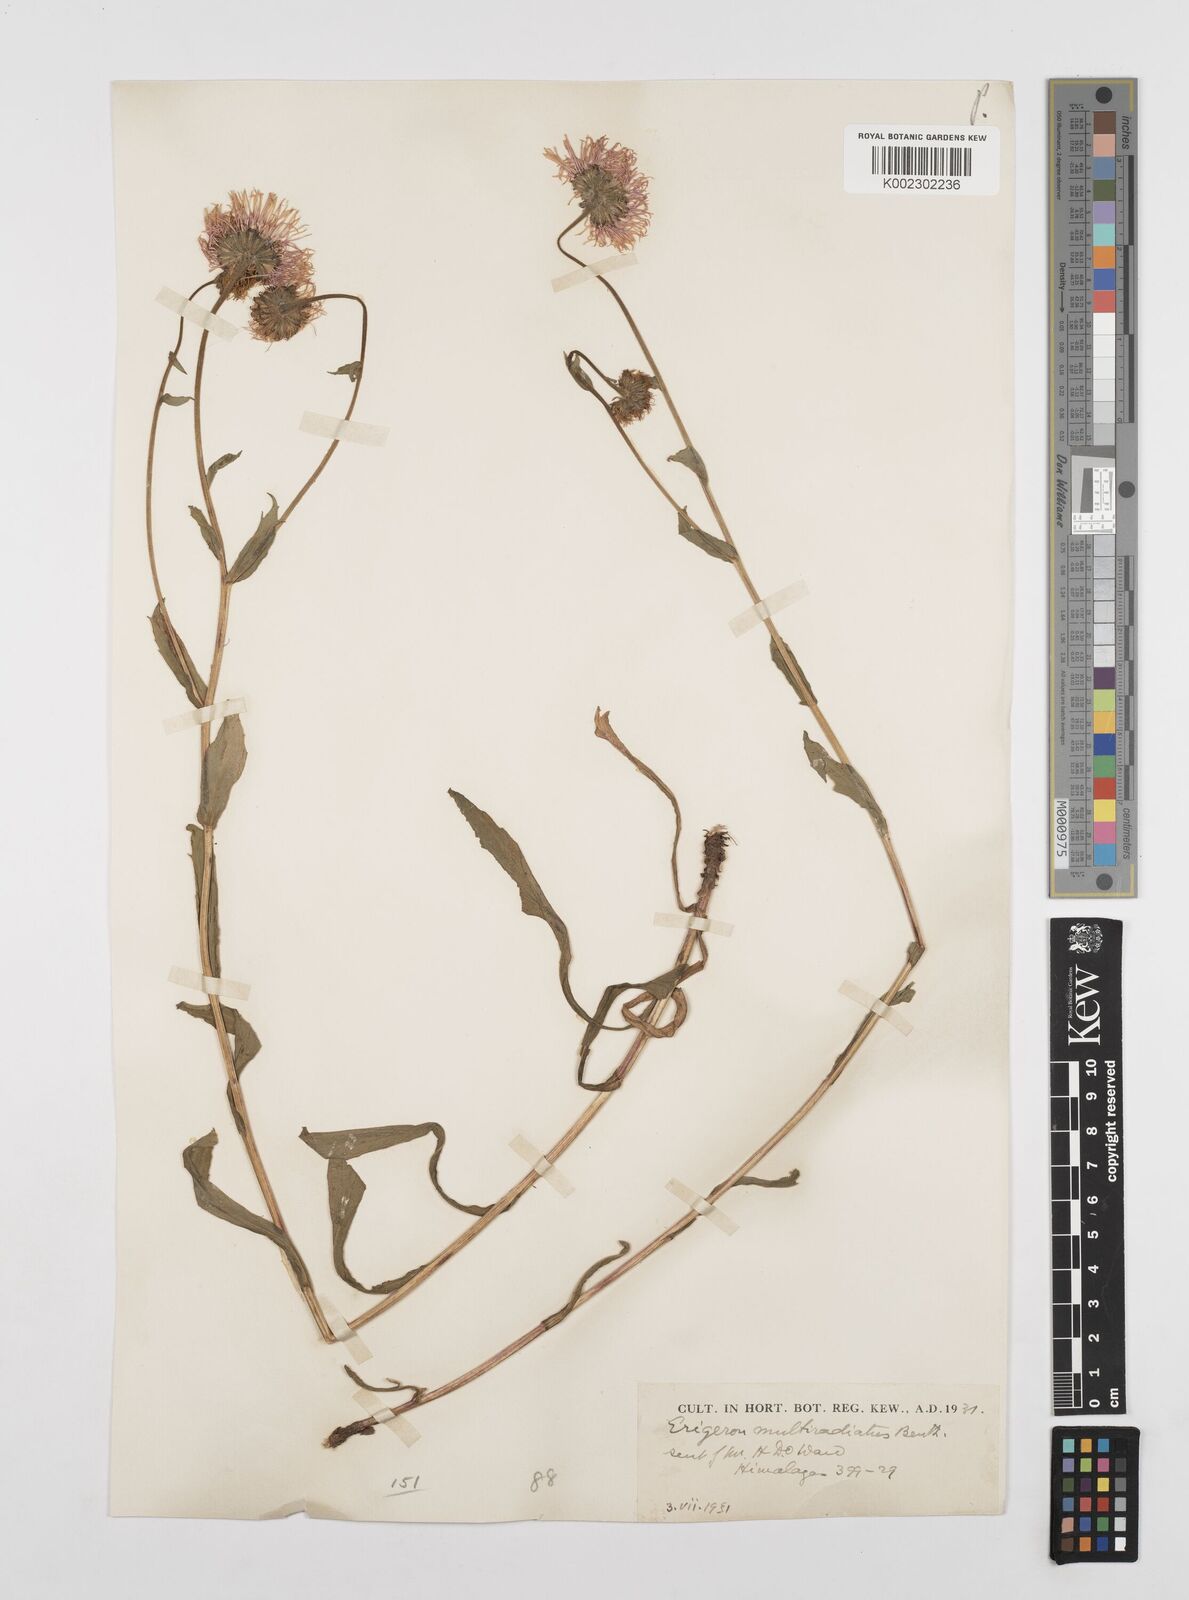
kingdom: Plantae
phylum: Tracheophyta
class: Magnoliopsida
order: Asterales
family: Asteraceae
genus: Erigeron
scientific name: Erigeron multiradiatus
